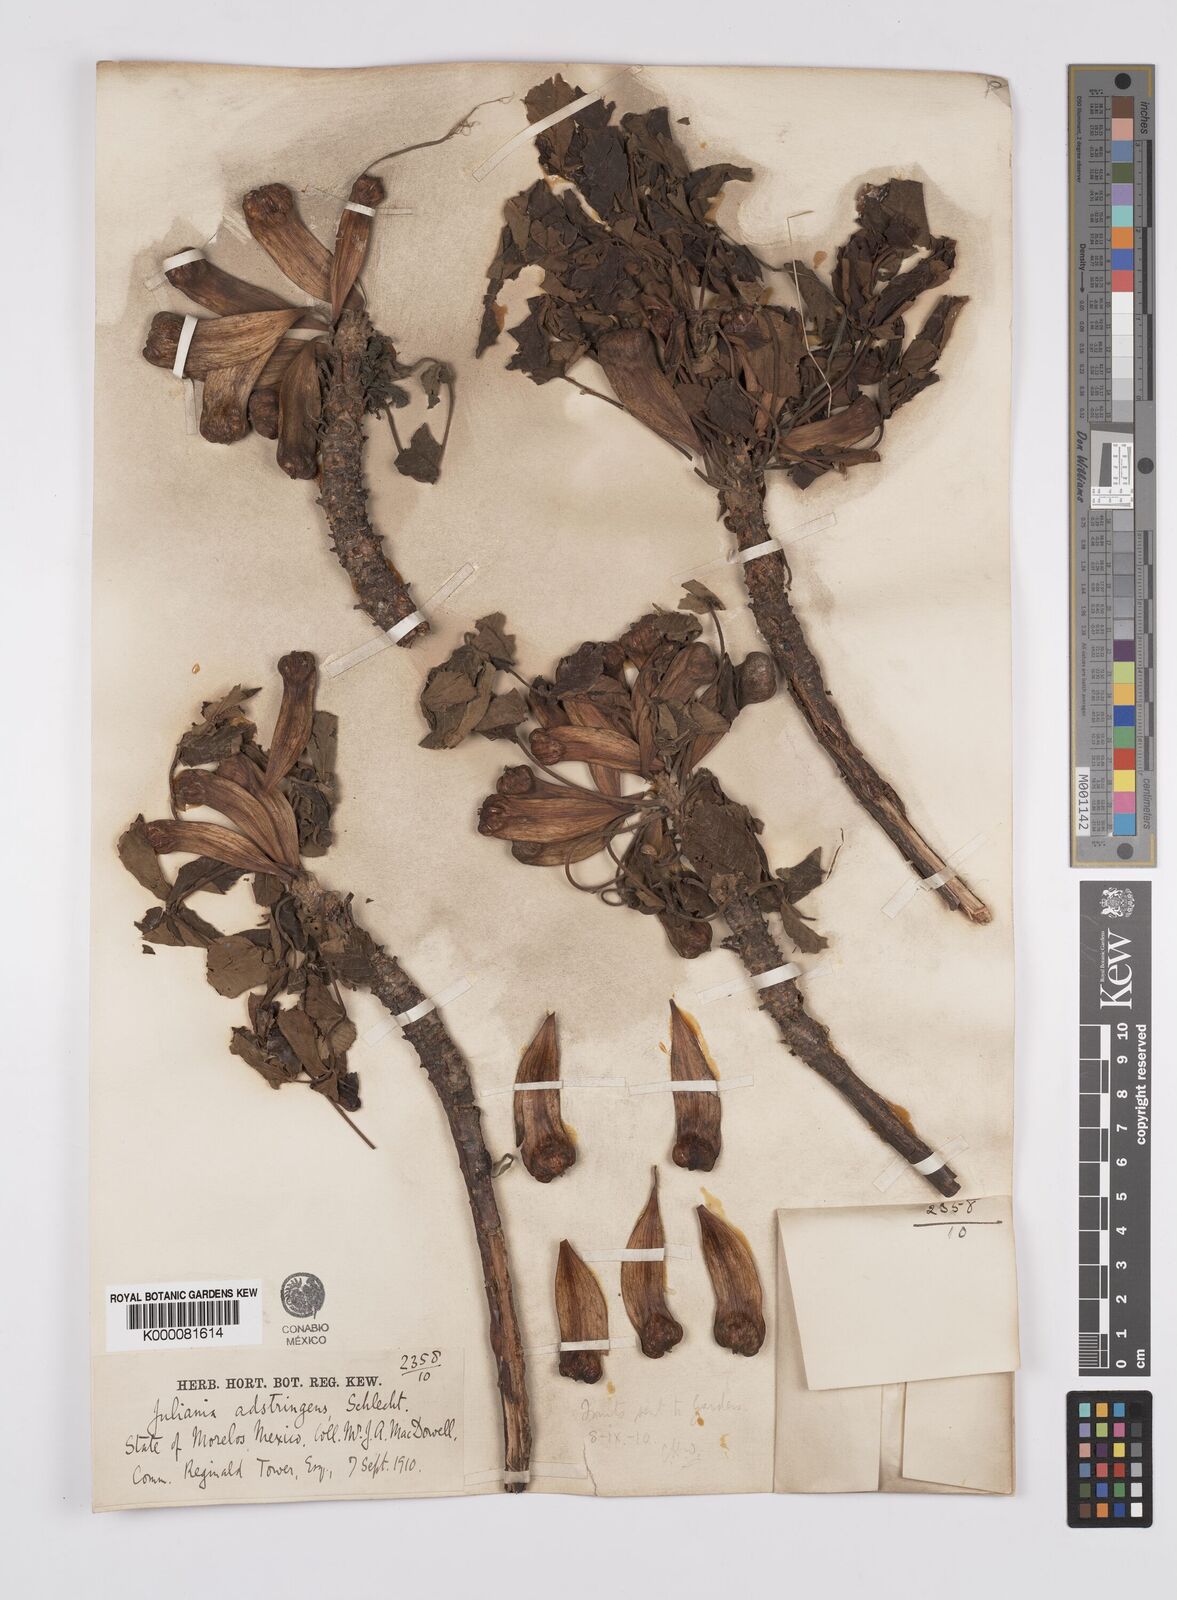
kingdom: Plantae
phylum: Tracheophyta
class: Magnoliopsida
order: Sapindales
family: Anacardiaceae
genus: Amphipterygium
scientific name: Amphipterygium adstringens
